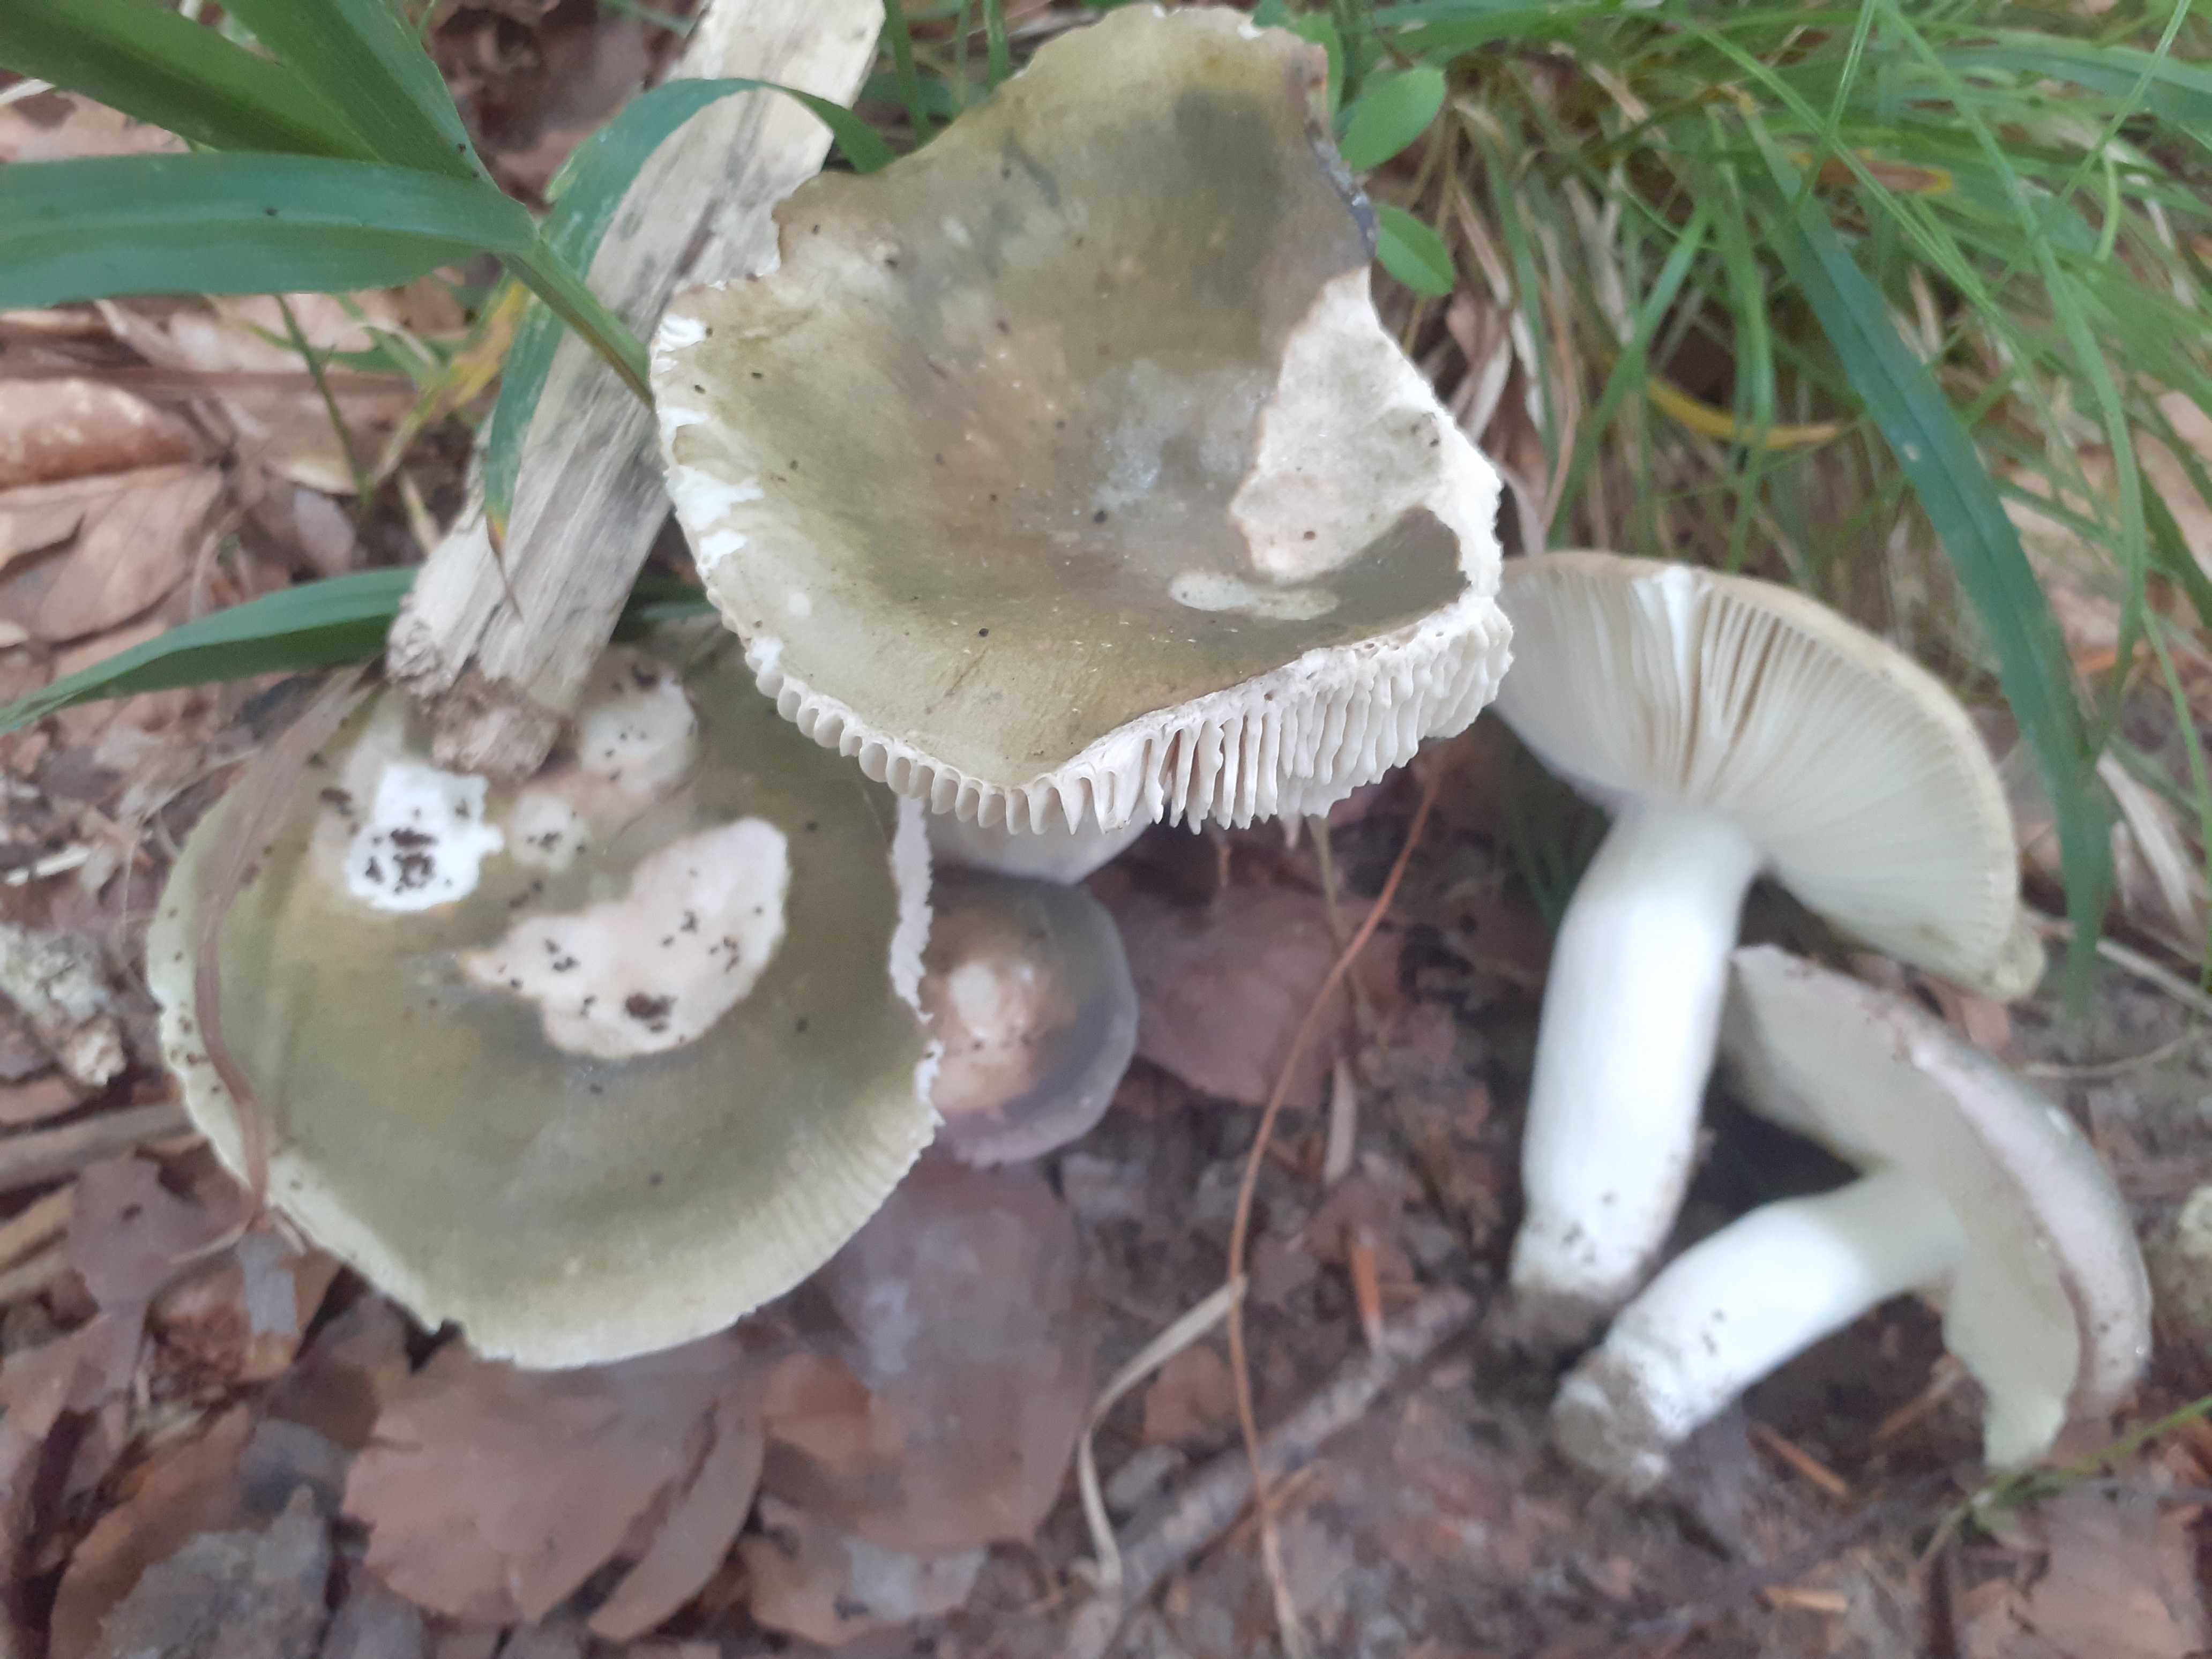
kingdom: Fungi
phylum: Basidiomycota
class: Agaricomycetes
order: Russulales
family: Russulaceae
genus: Russula
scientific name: Russula cyanoxantha
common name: broget skørhat
